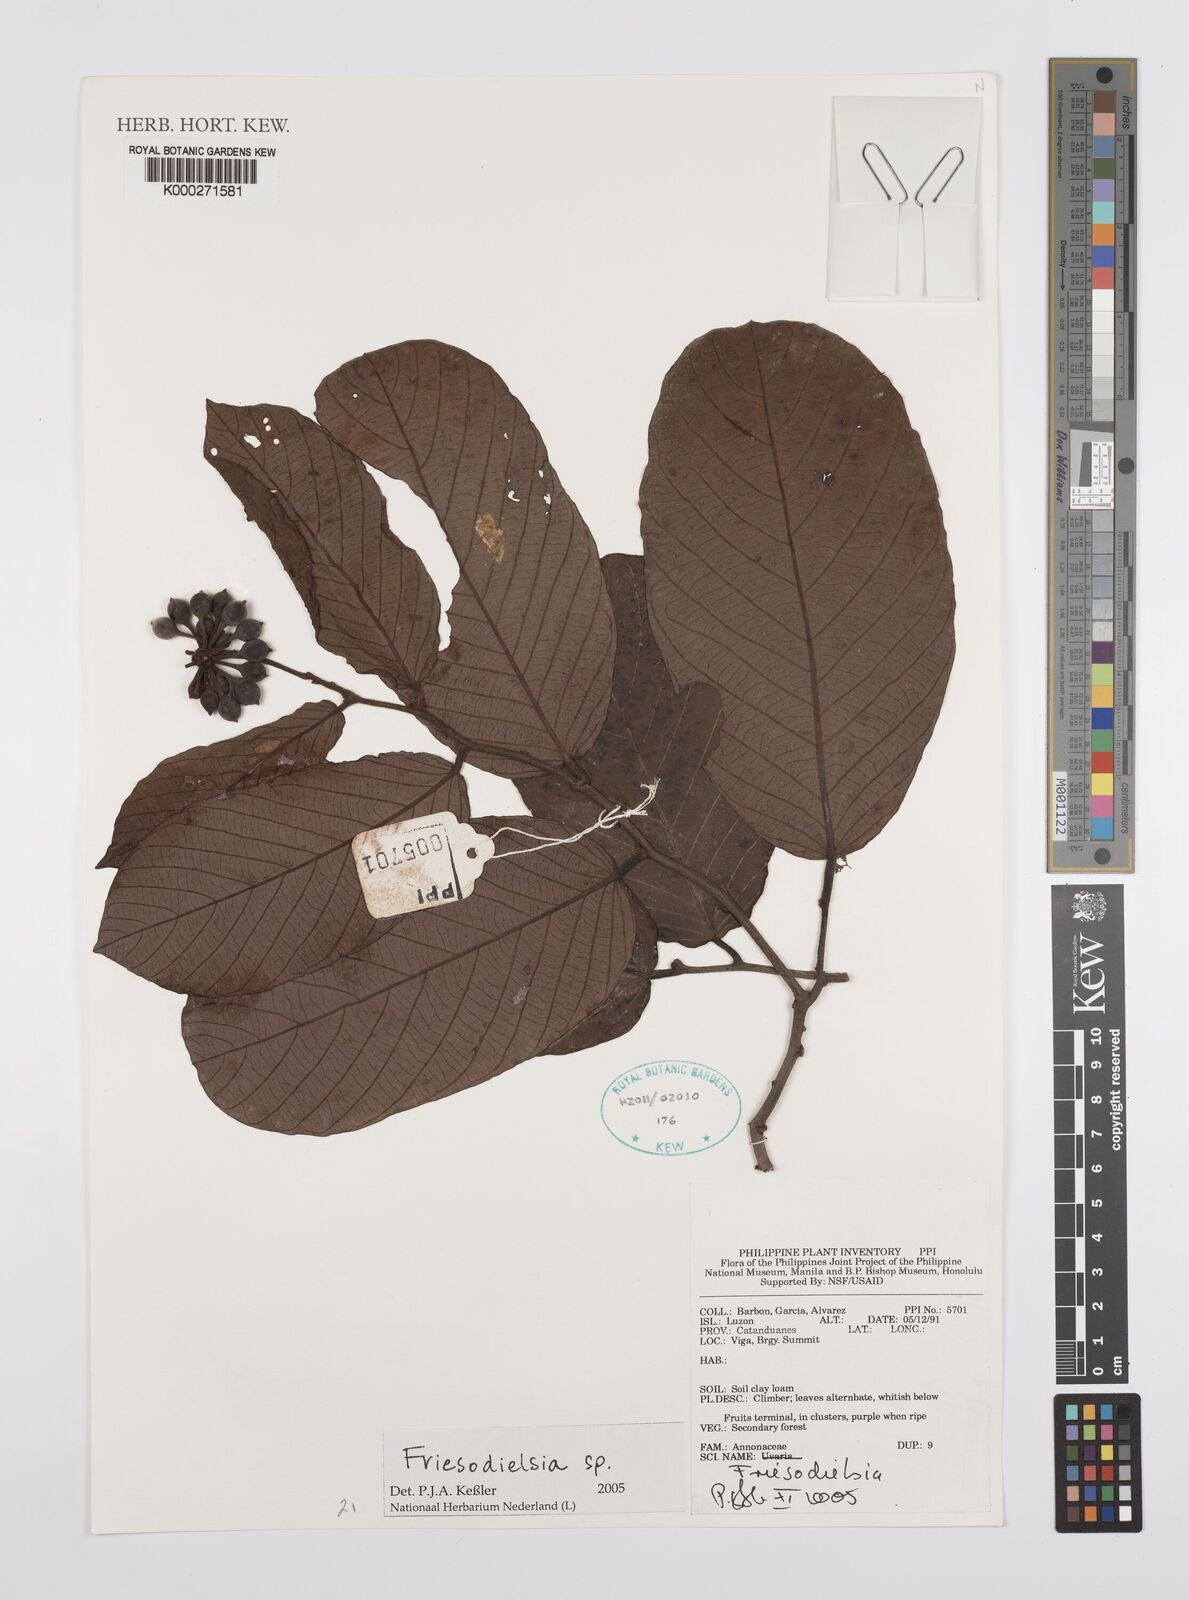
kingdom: Plantae
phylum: Tracheophyta
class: Magnoliopsida
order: Magnoliales
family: Annonaceae
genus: Friesodielsia
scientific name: Friesodielsia
